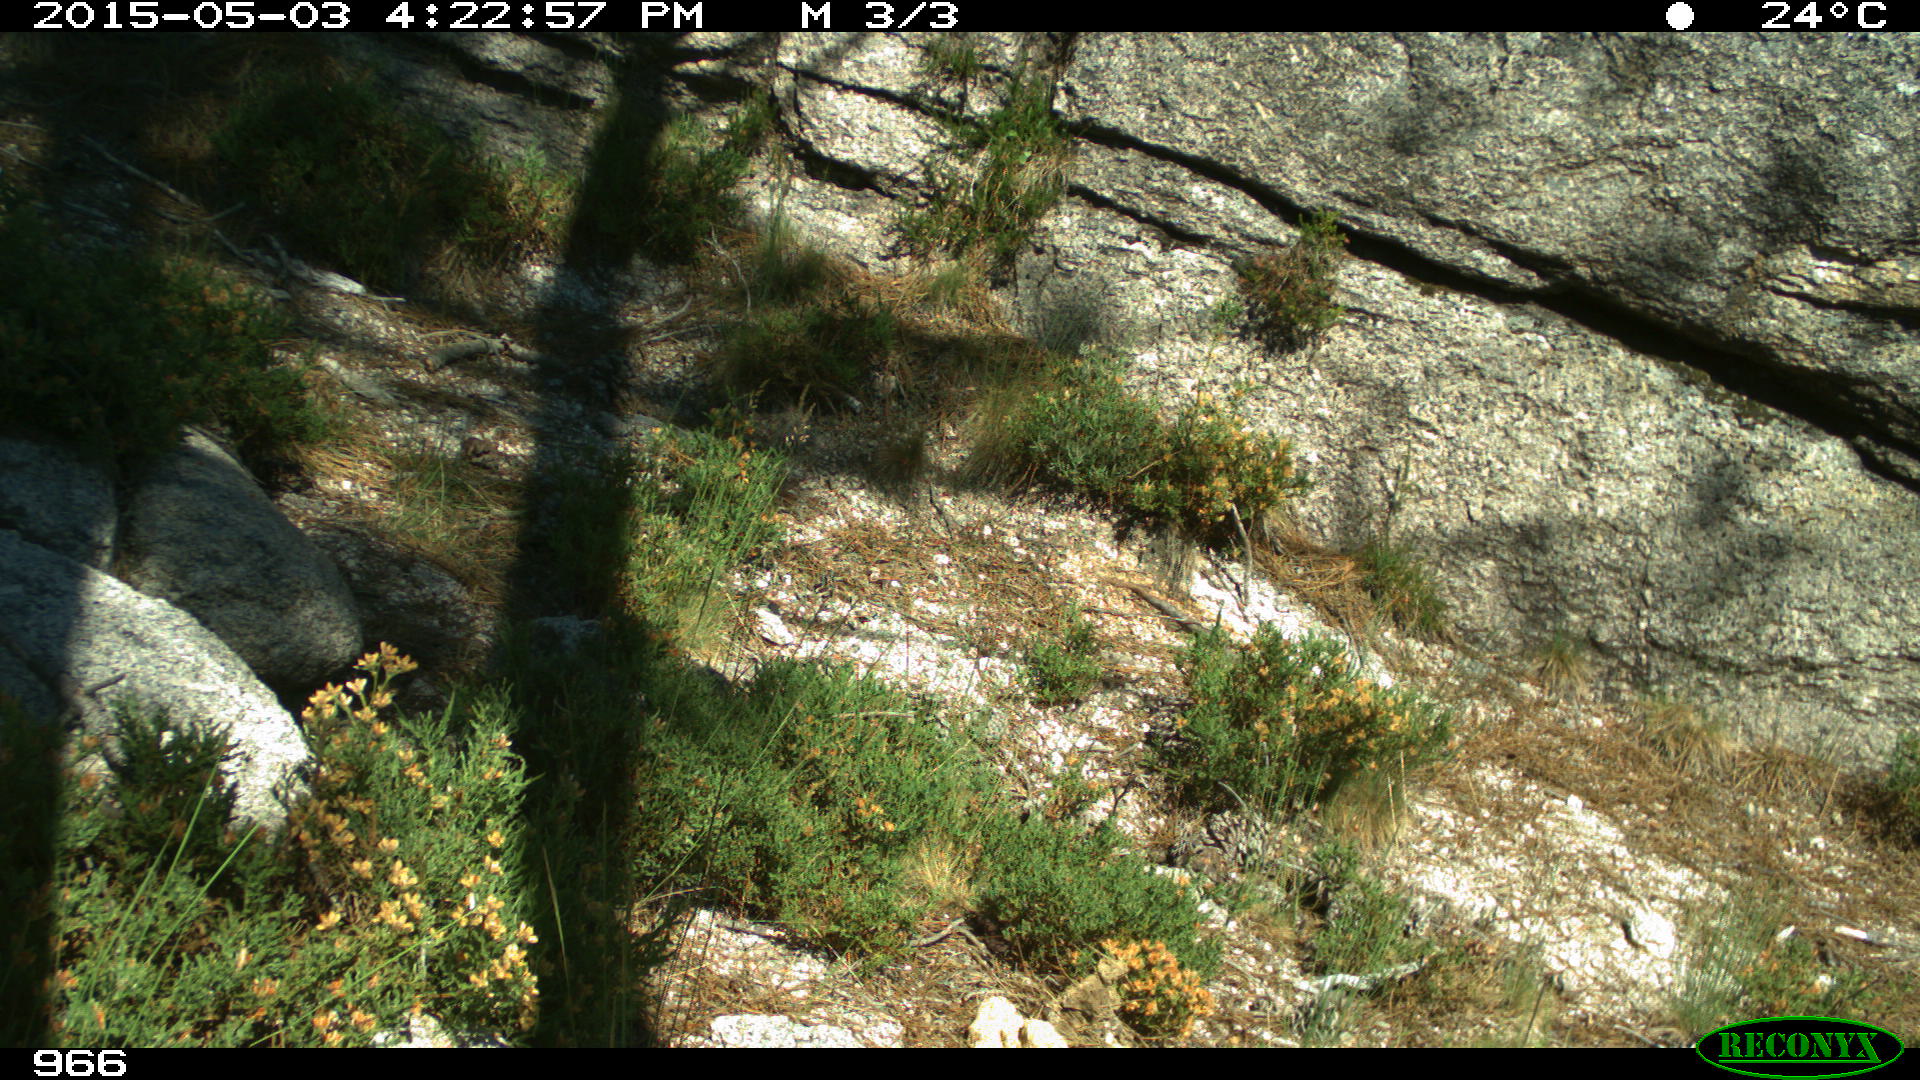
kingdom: Animalia
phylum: Chordata
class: Mammalia
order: Artiodactyla
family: Suidae
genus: Sus
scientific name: Sus scrofa
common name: Wild boar
